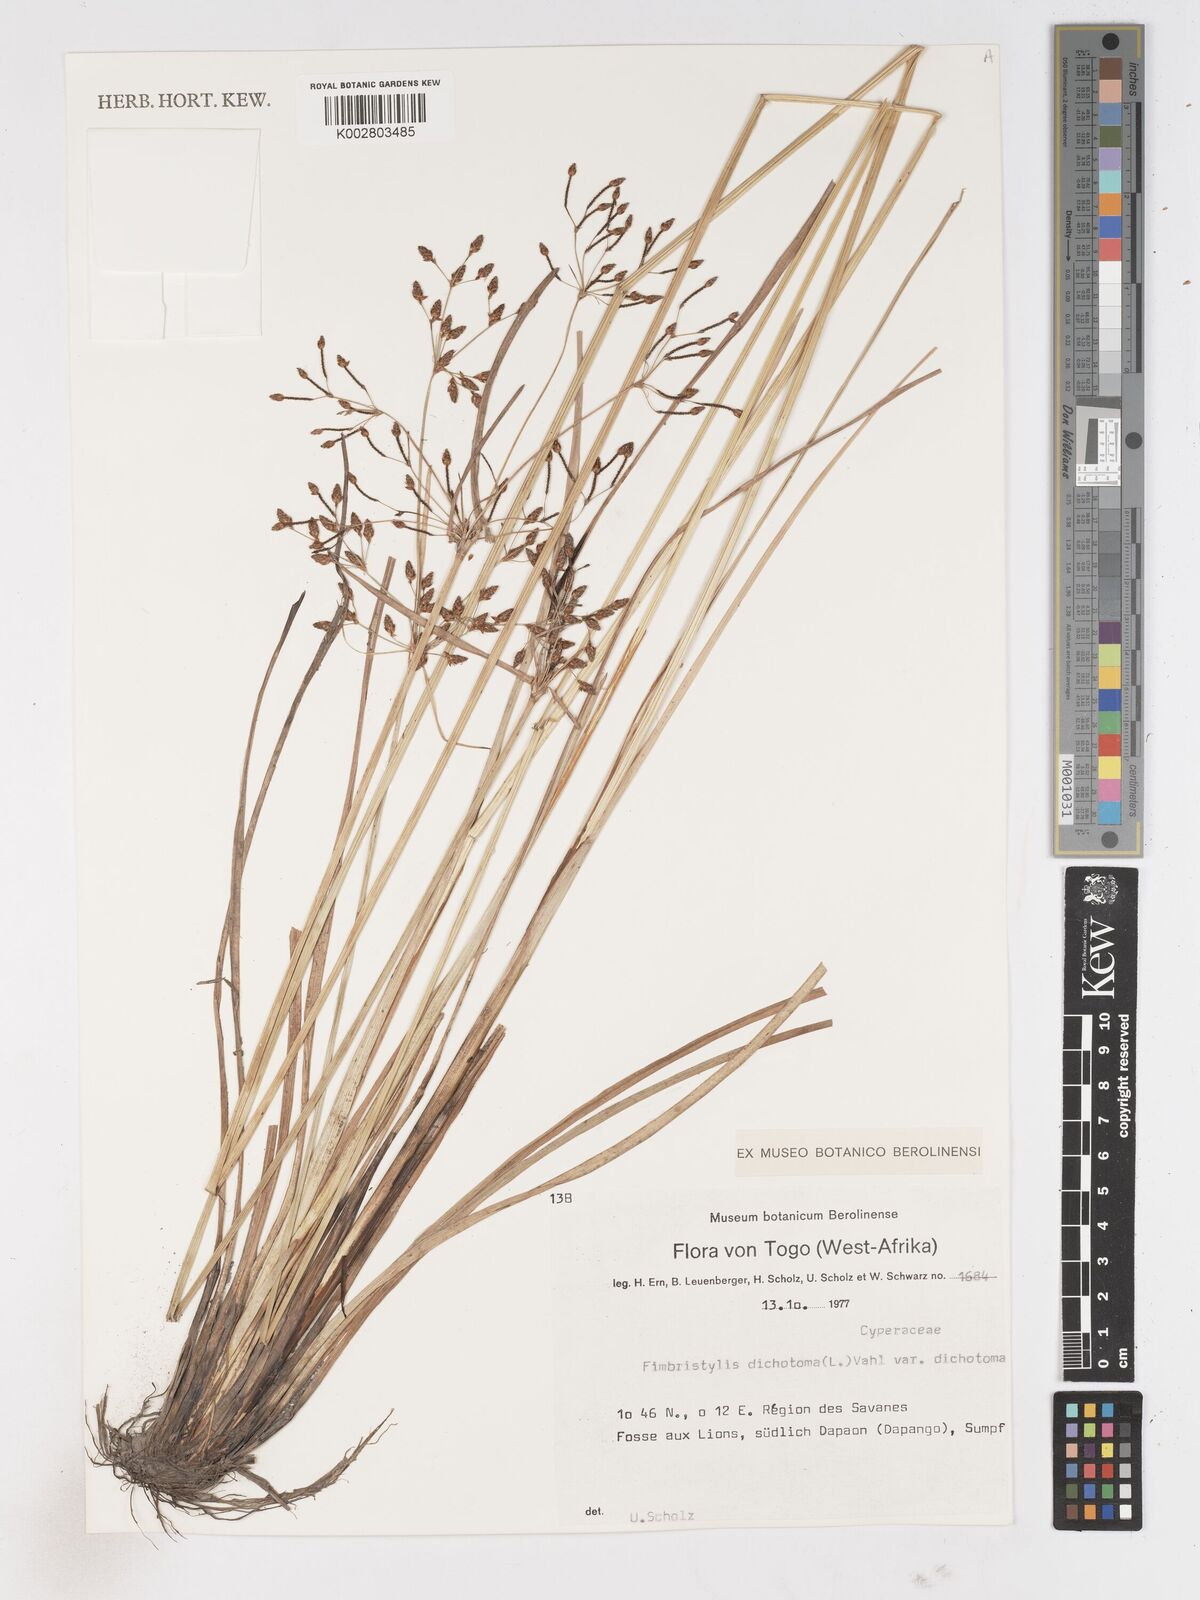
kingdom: Plantae
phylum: Tracheophyta
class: Liliopsida
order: Poales
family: Cyperaceae
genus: Fimbristylis
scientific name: Fimbristylis dichotoma
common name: Forked fimbry
